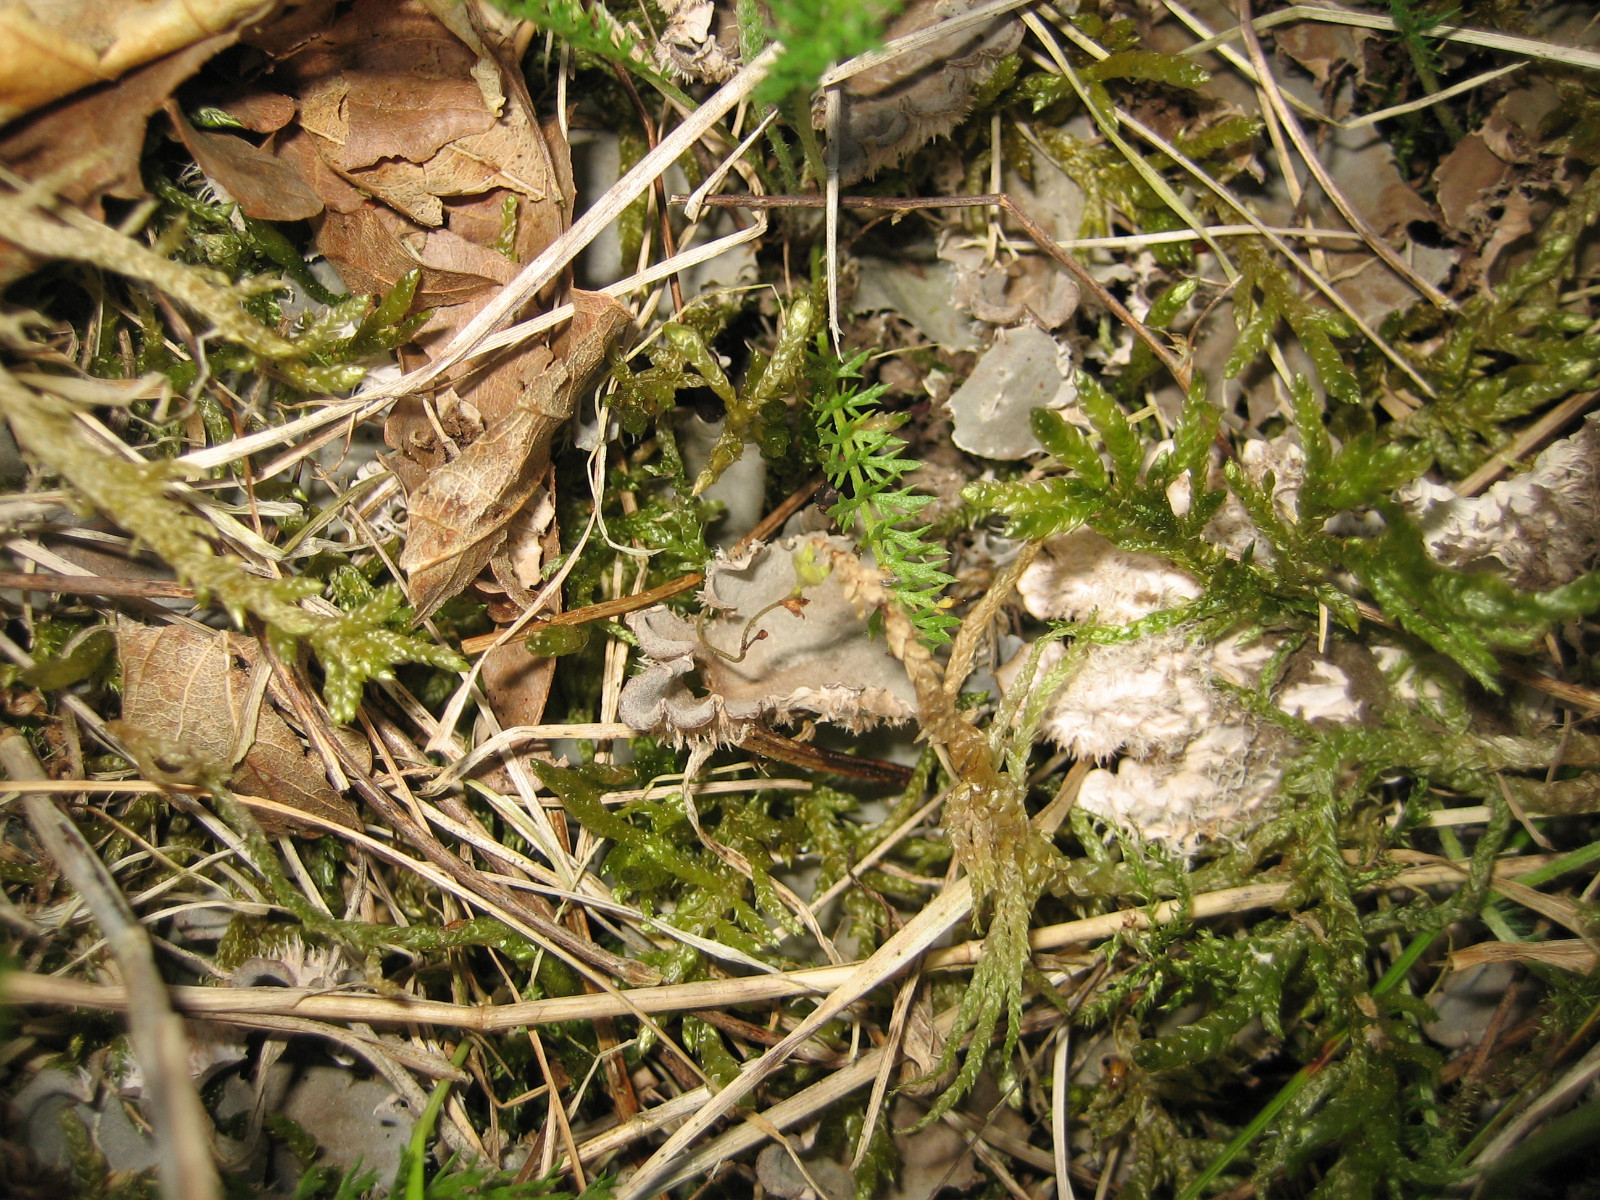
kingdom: Fungi
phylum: Ascomycota
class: Lecanoromycetes
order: Peltigerales
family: Peltigeraceae
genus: Peltigera
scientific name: Peltigera canina
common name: hunde-skjoldlav
